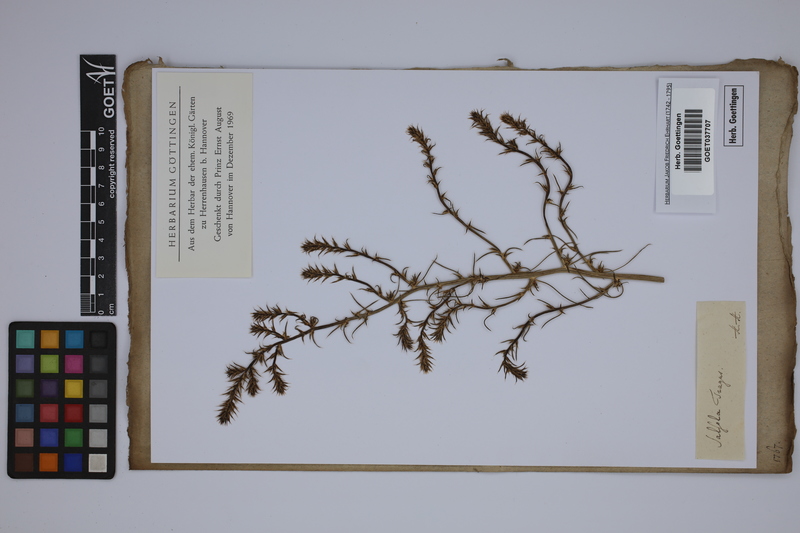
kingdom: Plantae
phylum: Tracheophyta
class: Magnoliopsida
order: Caryophyllales
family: Amaranthaceae
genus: Salsola
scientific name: Salsola tragus
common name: Prickly russian thistle
